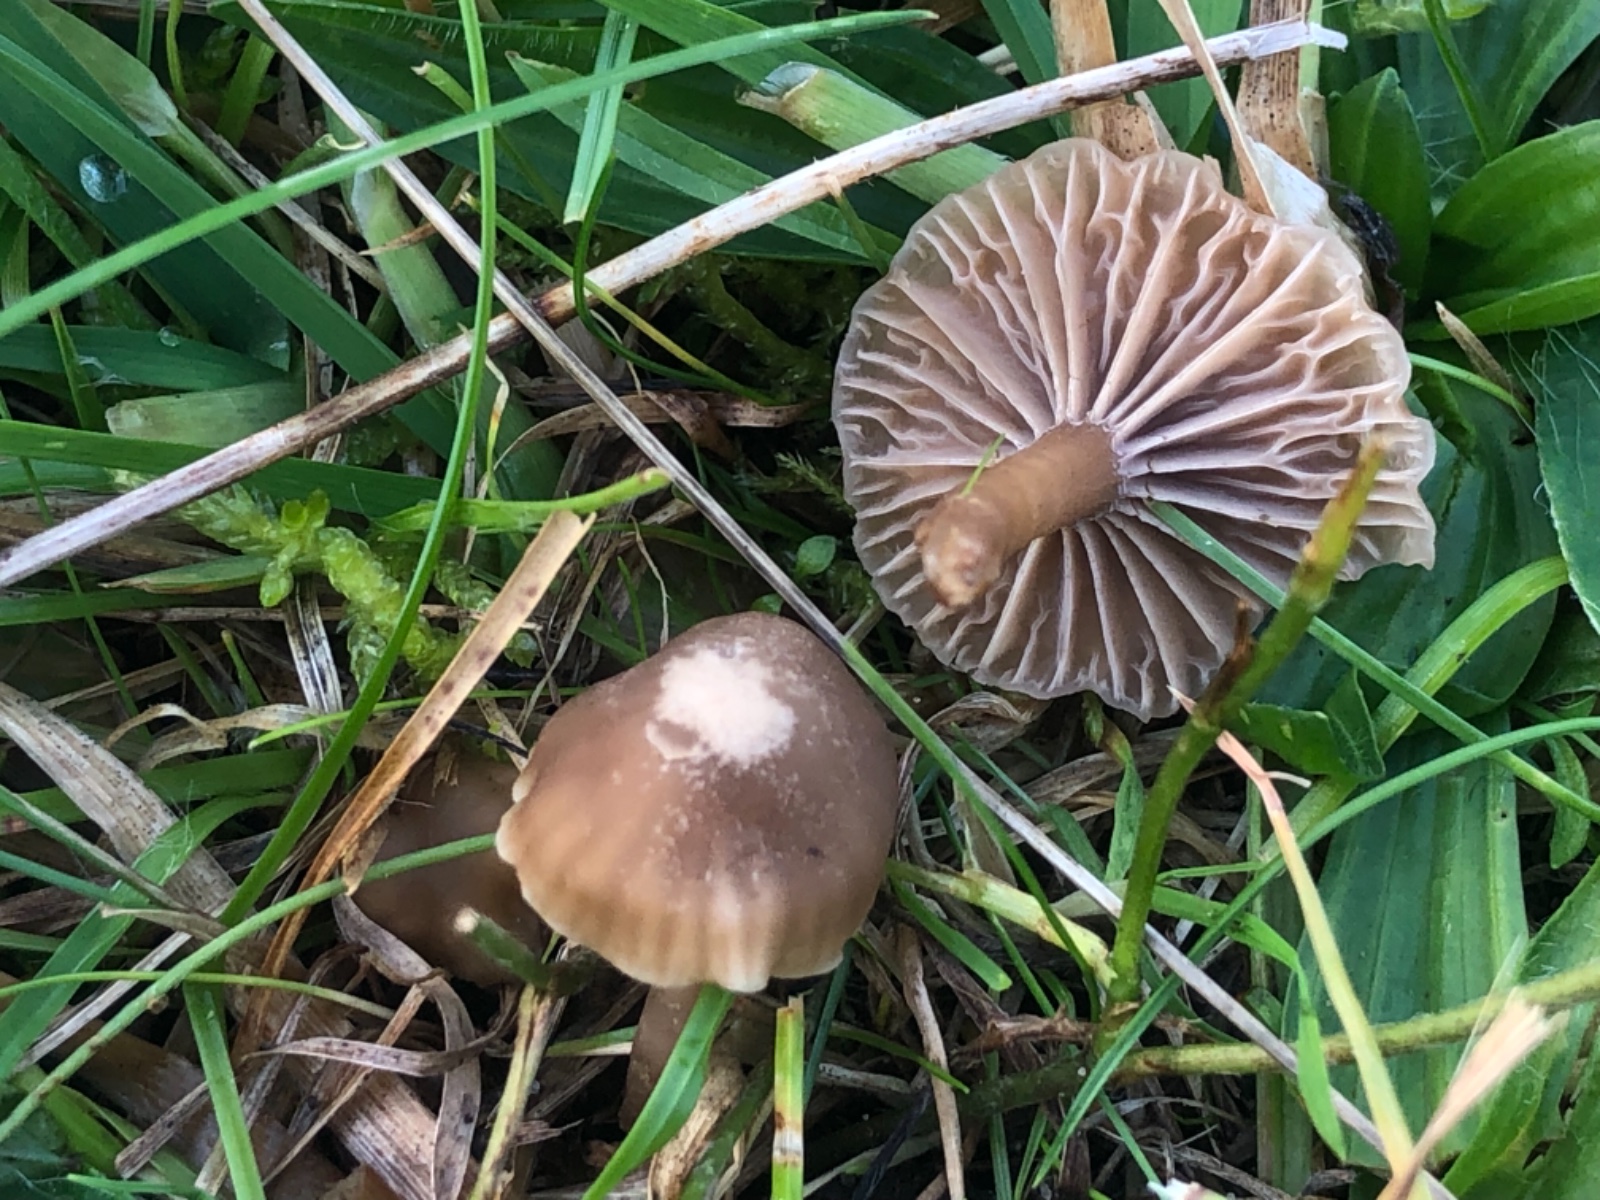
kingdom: Fungi
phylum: Basidiomycota
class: Agaricomycetes
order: Agaricales
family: Clavariaceae
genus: Hodophilus
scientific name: Hodophilus subfoetens
